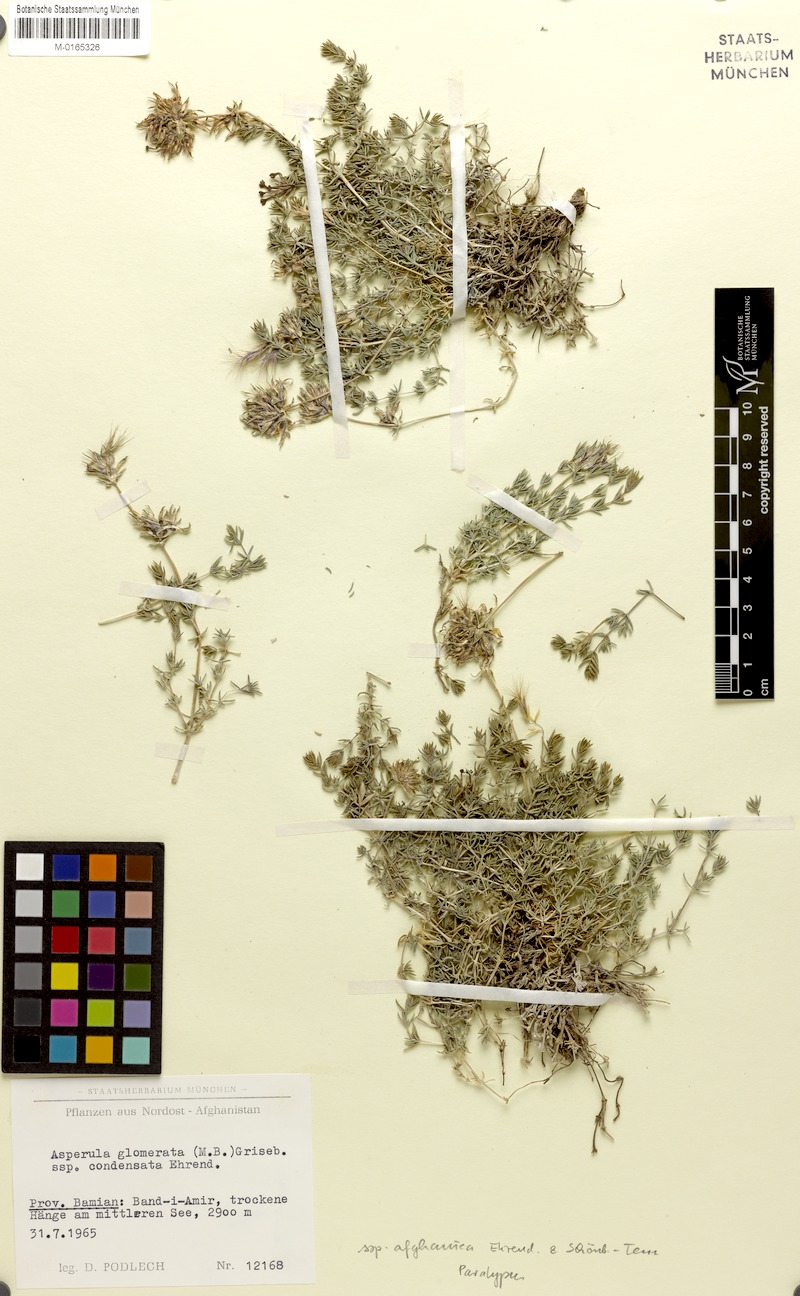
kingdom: Plantae
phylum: Tracheophyta
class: Magnoliopsida
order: Gentianales
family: Rubiaceae
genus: Asperula
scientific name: Asperula glomerata
